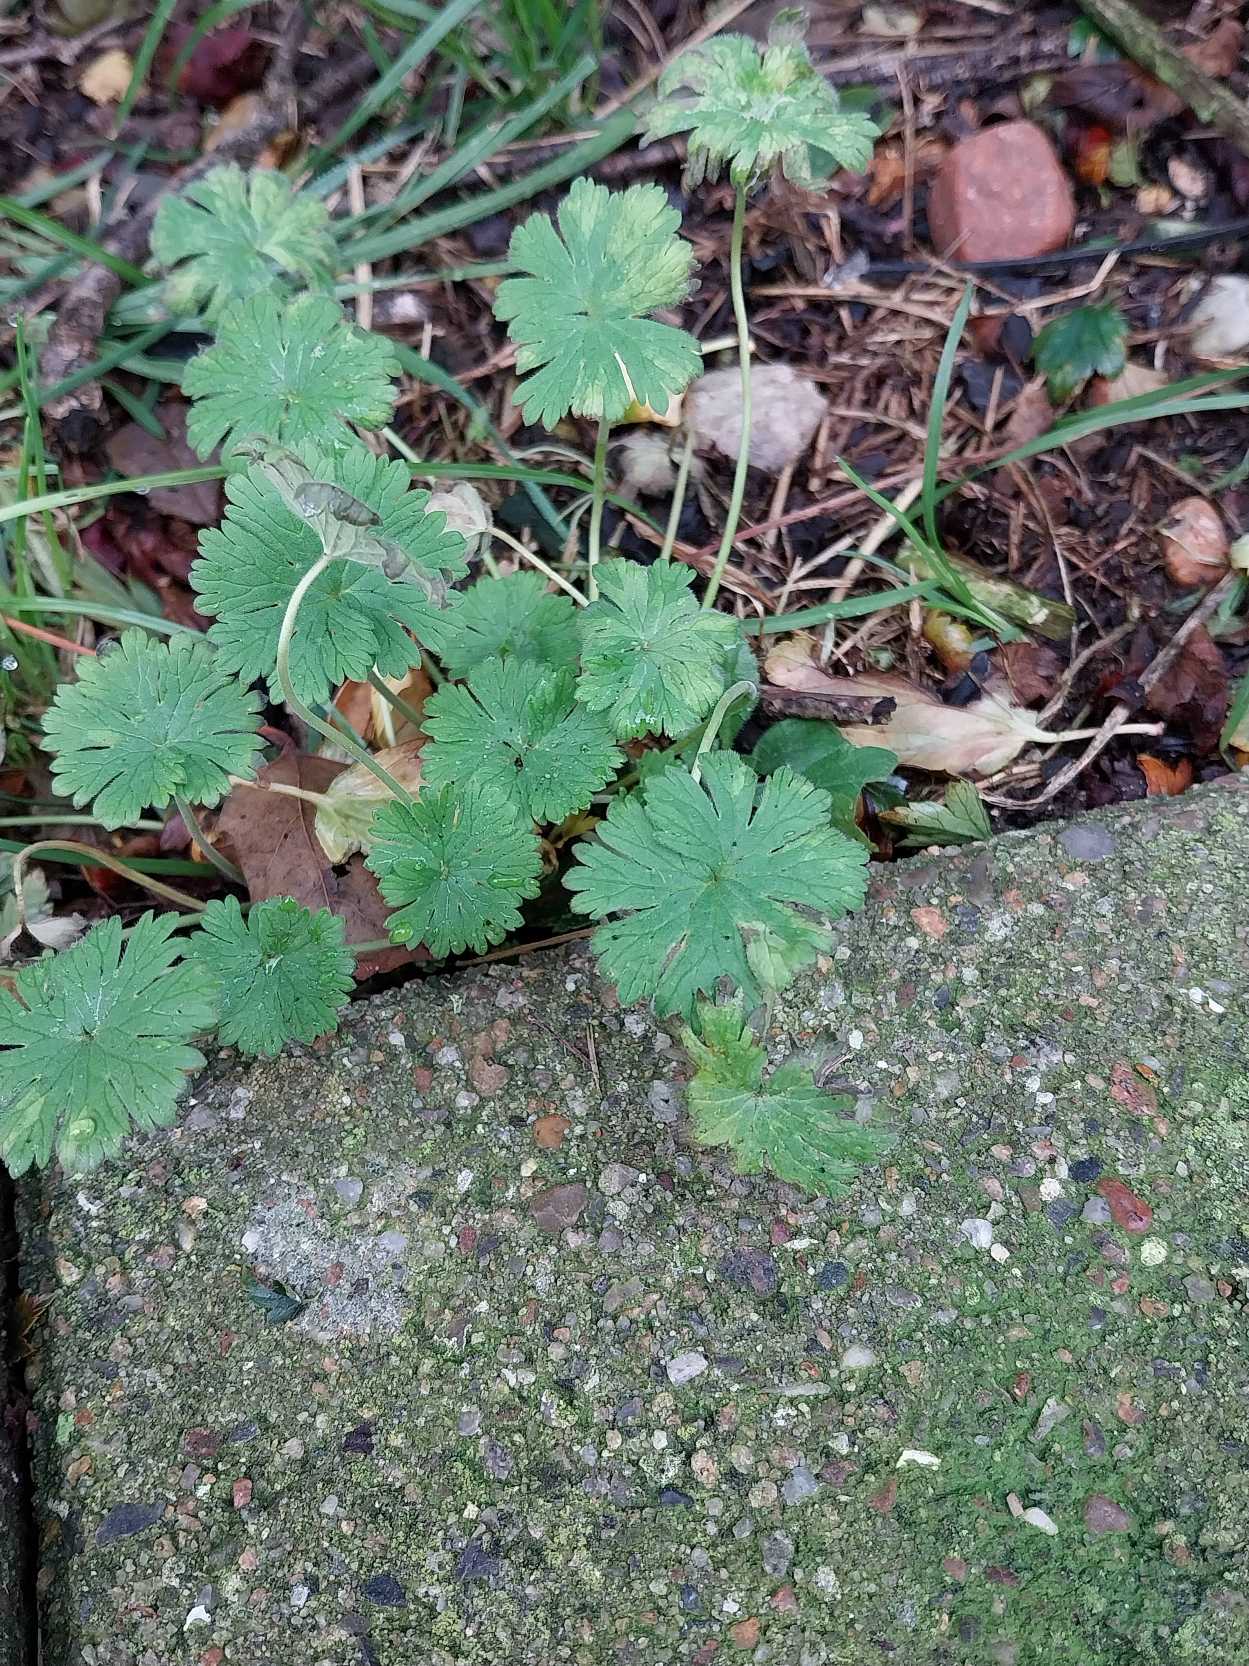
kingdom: Plantae
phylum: Tracheophyta
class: Magnoliopsida
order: Geraniales
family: Geraniaceae
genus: Geranium
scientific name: Geranium pusillum
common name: Liden storkenæb
